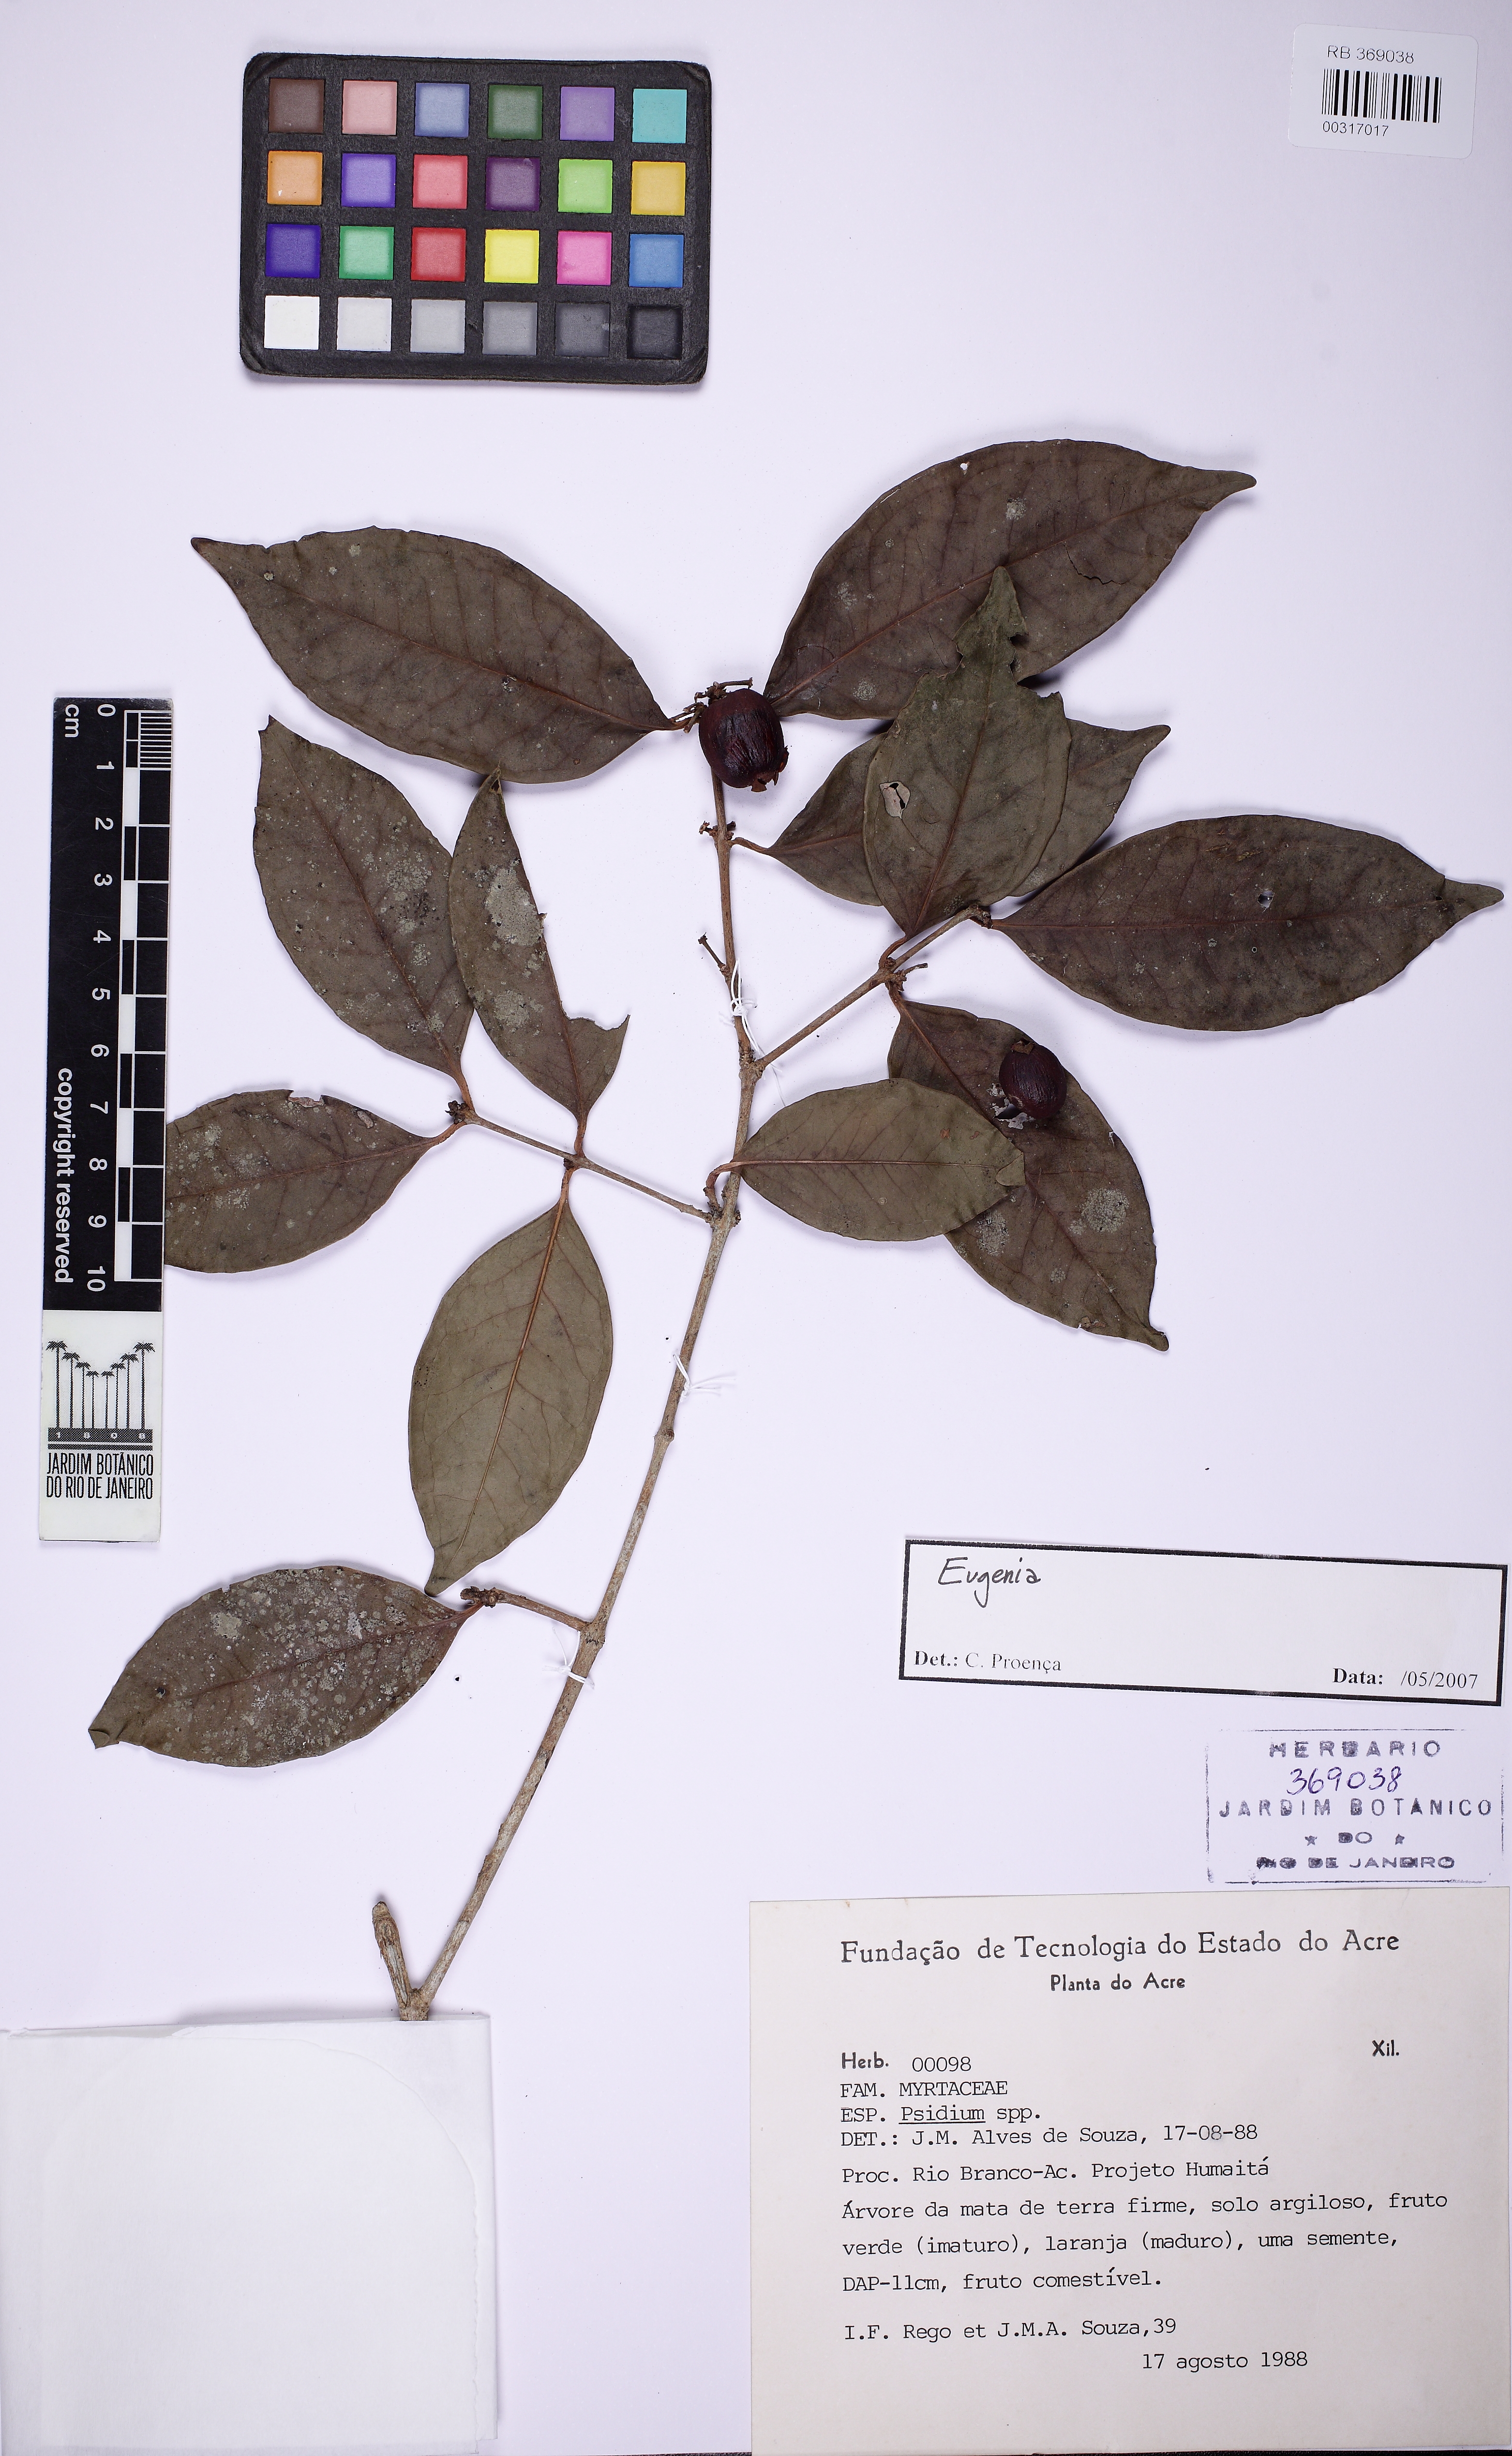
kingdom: Plantae
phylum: Tracheophyta
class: Magnoliopsida
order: Myrtales
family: Myrtaceae
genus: Eugenia
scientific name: Eugenia
